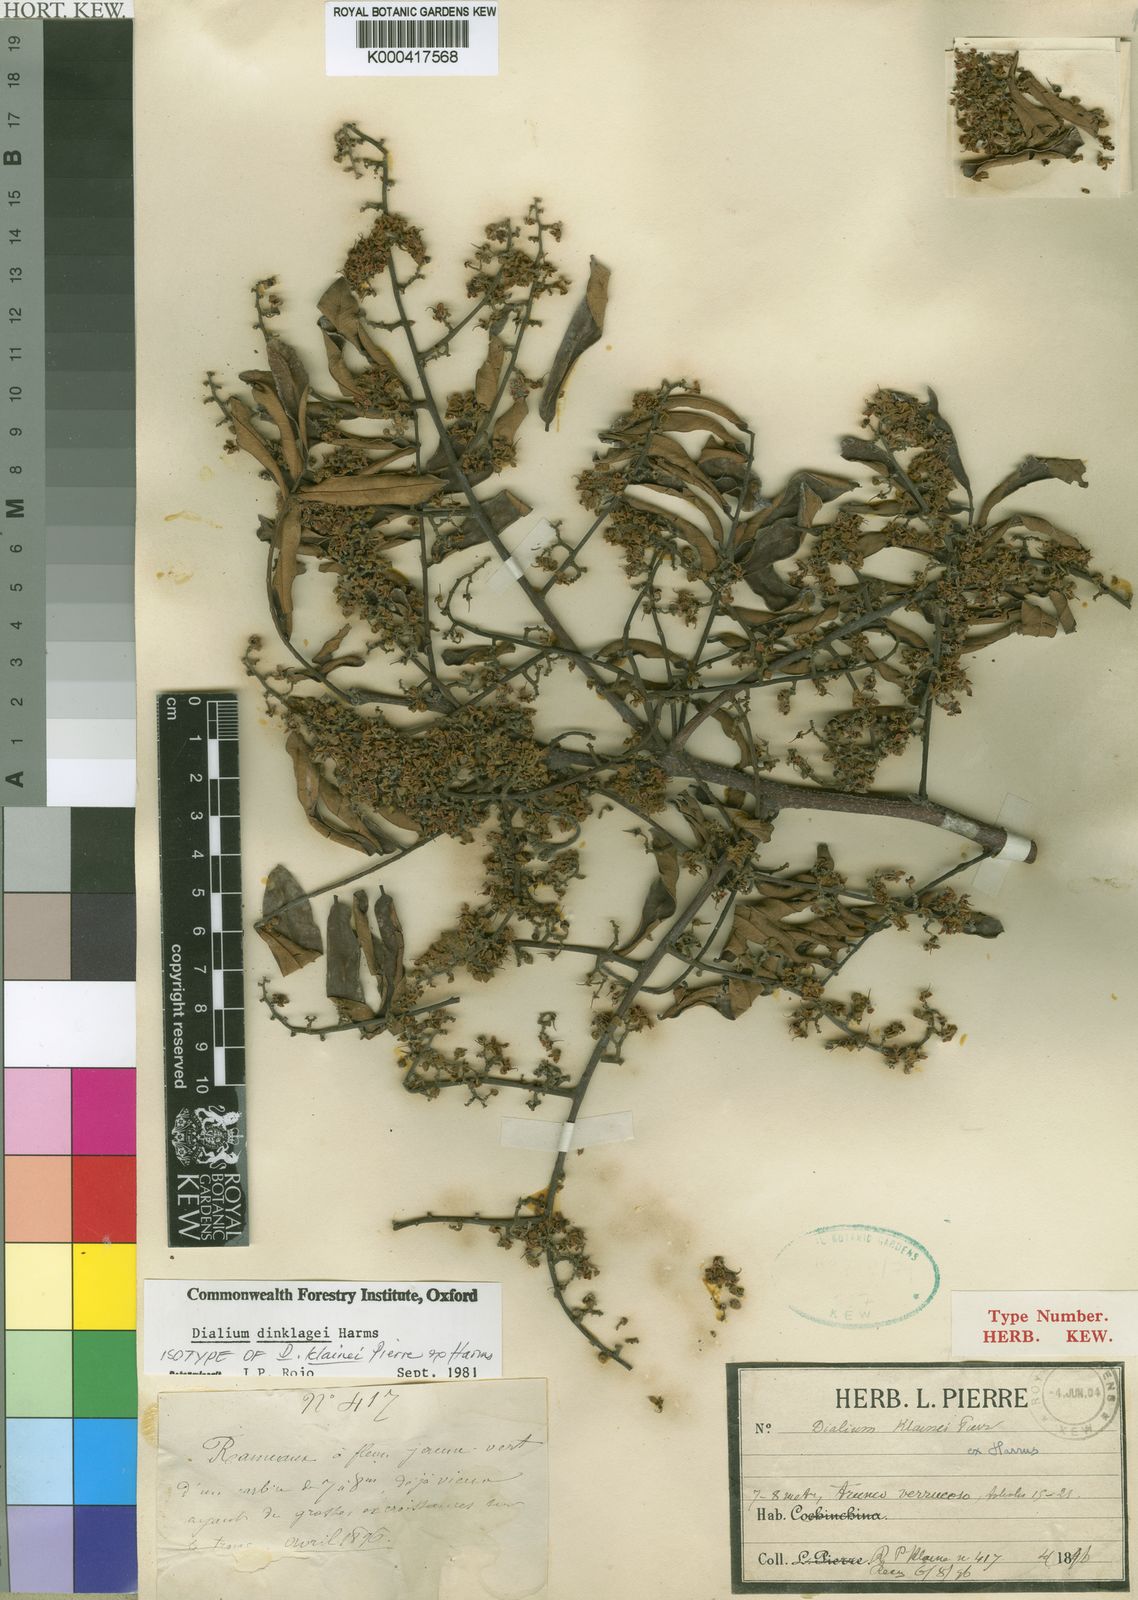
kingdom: Plantae
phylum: Tracheophyta
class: Magnoliopsida
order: Fabales
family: Fabaceae
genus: Dialium
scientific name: Dialium dinklagei
